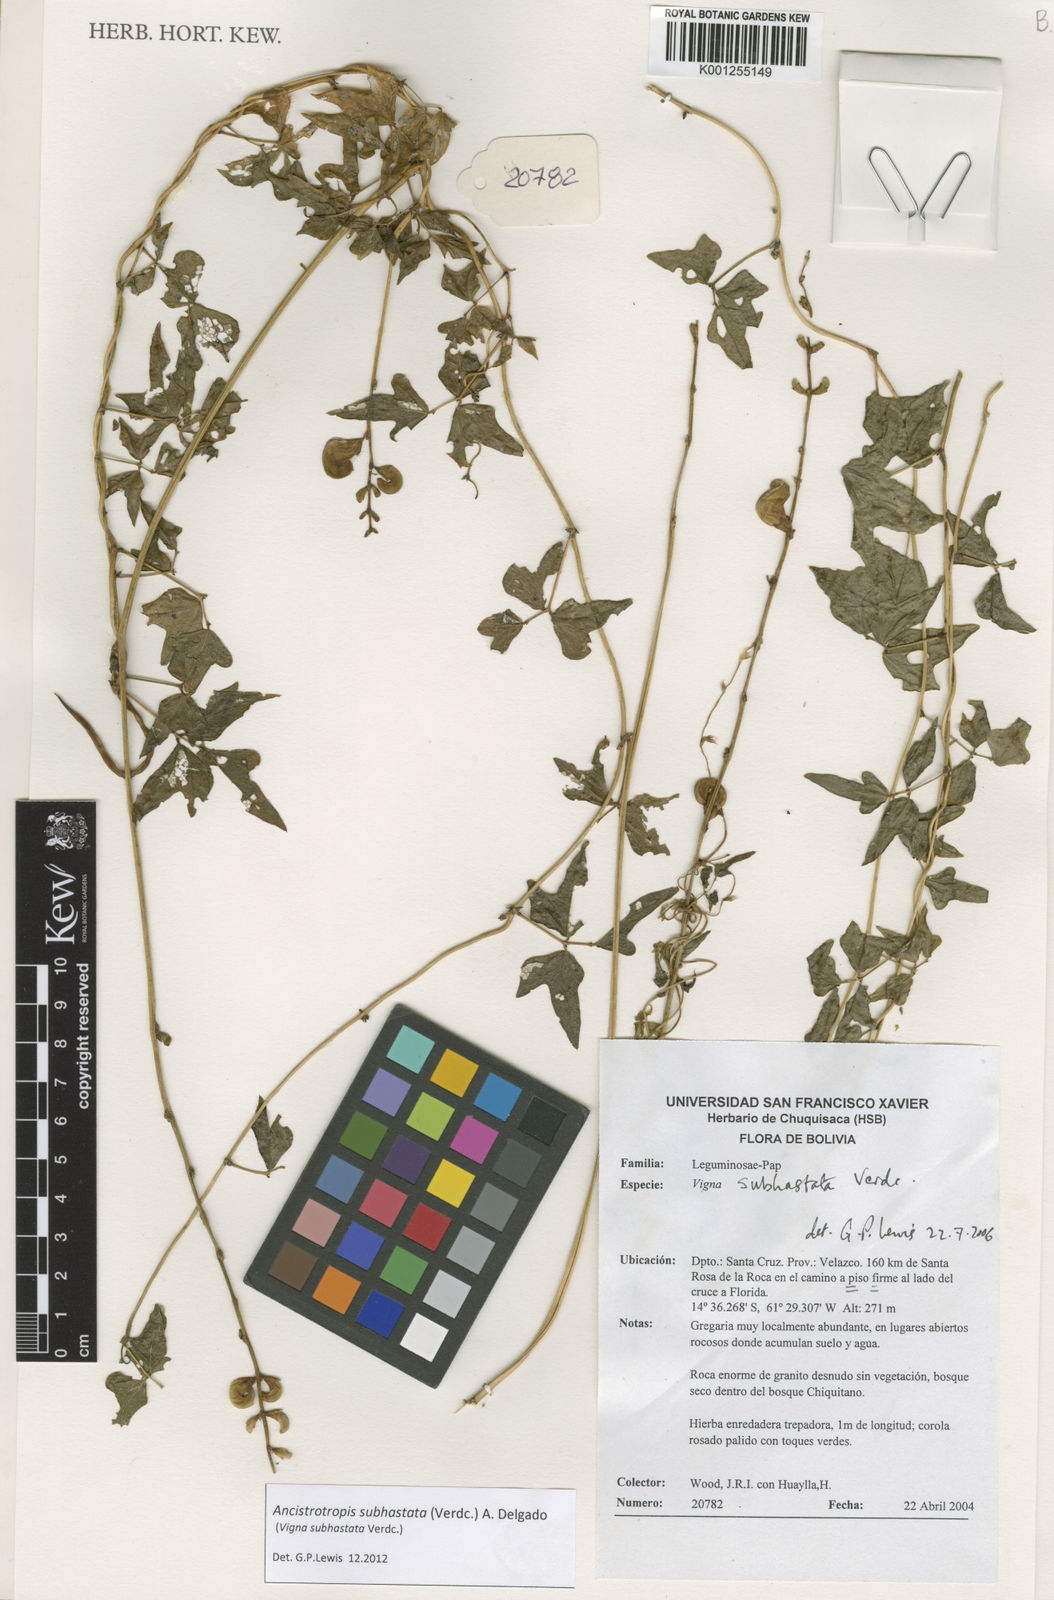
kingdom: Plantae
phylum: Tracheophyta
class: Magnoliopsida
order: Fabales
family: Fabaceae
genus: Ancistrotropis
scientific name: Ancistrotropis subhastata
